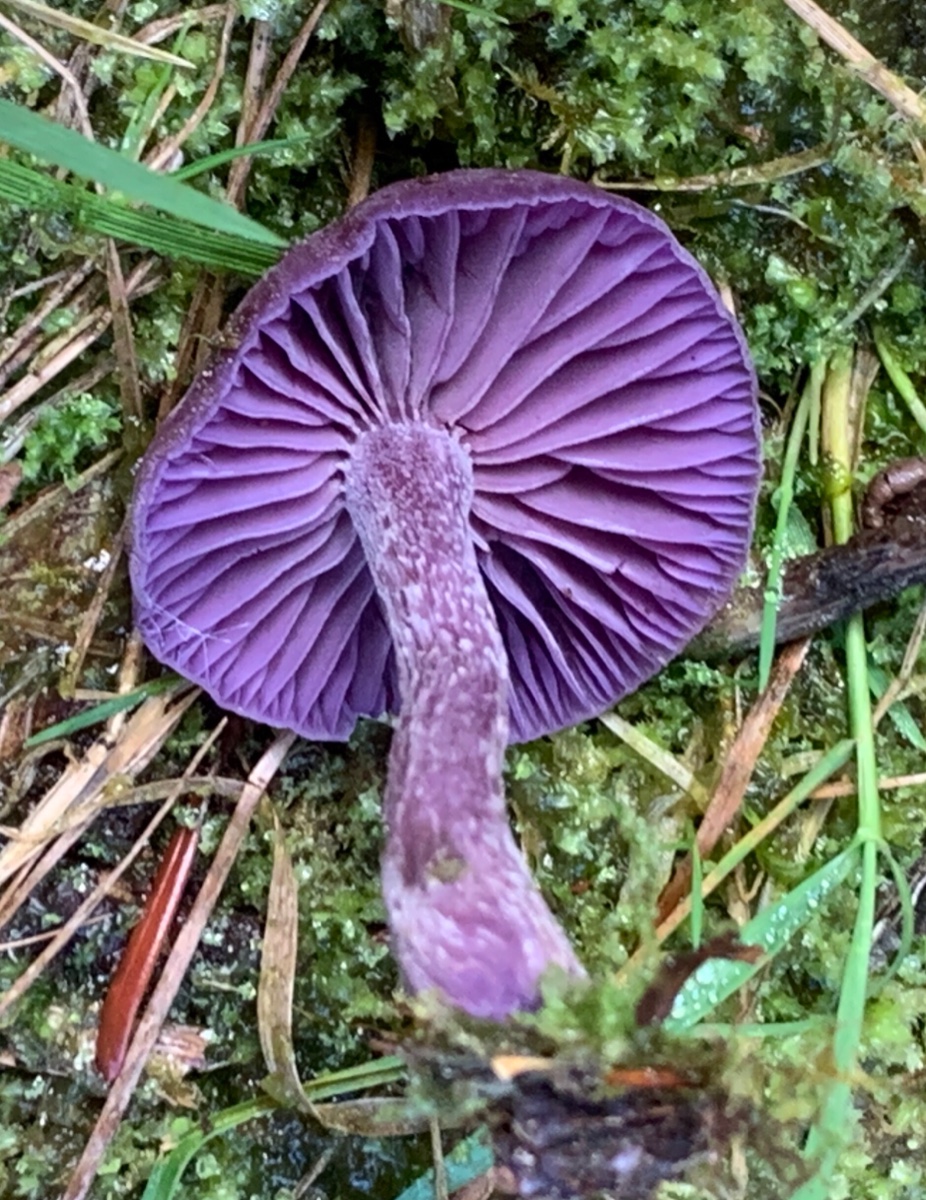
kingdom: Fungi
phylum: Basidiomycota
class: Agaricomycetes
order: Agaricales
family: Hydnangiaceae
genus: Laccaria
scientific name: Laccaria amethystina
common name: violet ametysthat
